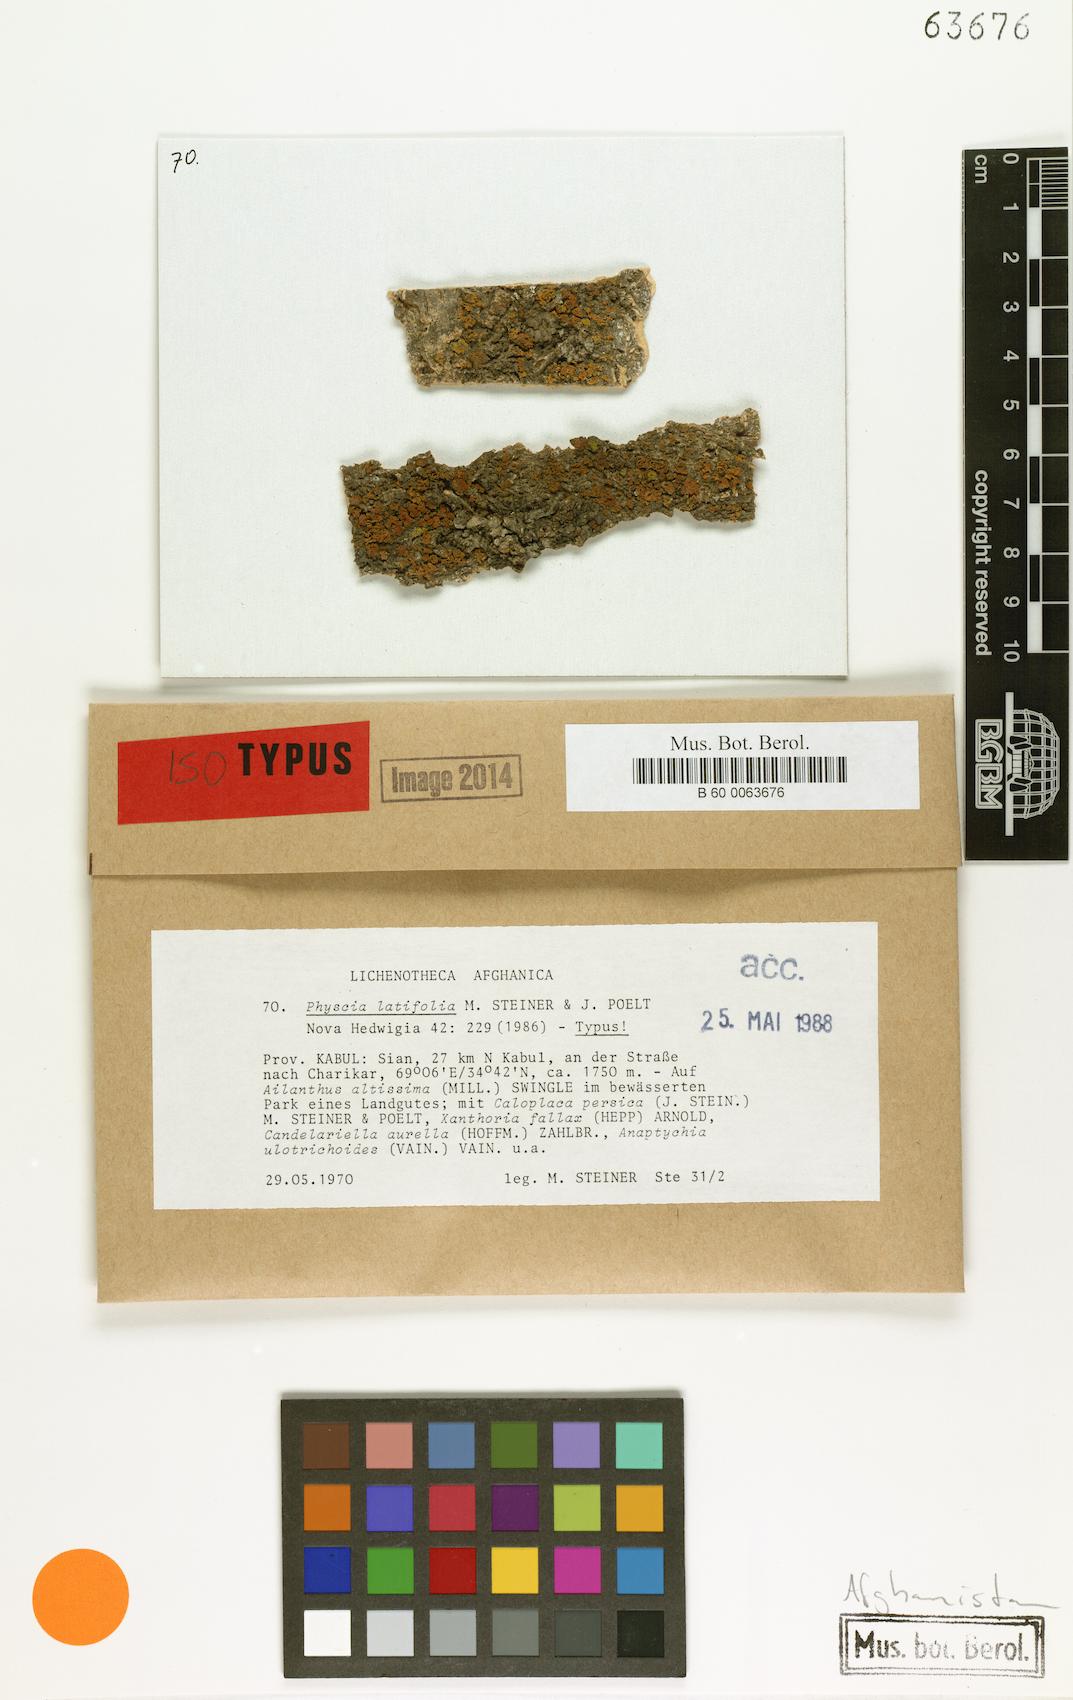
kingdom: Fungi
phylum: Ascomycota
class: Lecanoromycetes
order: Caliciales
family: Physciaceae
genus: Physcia
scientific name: Physcia
